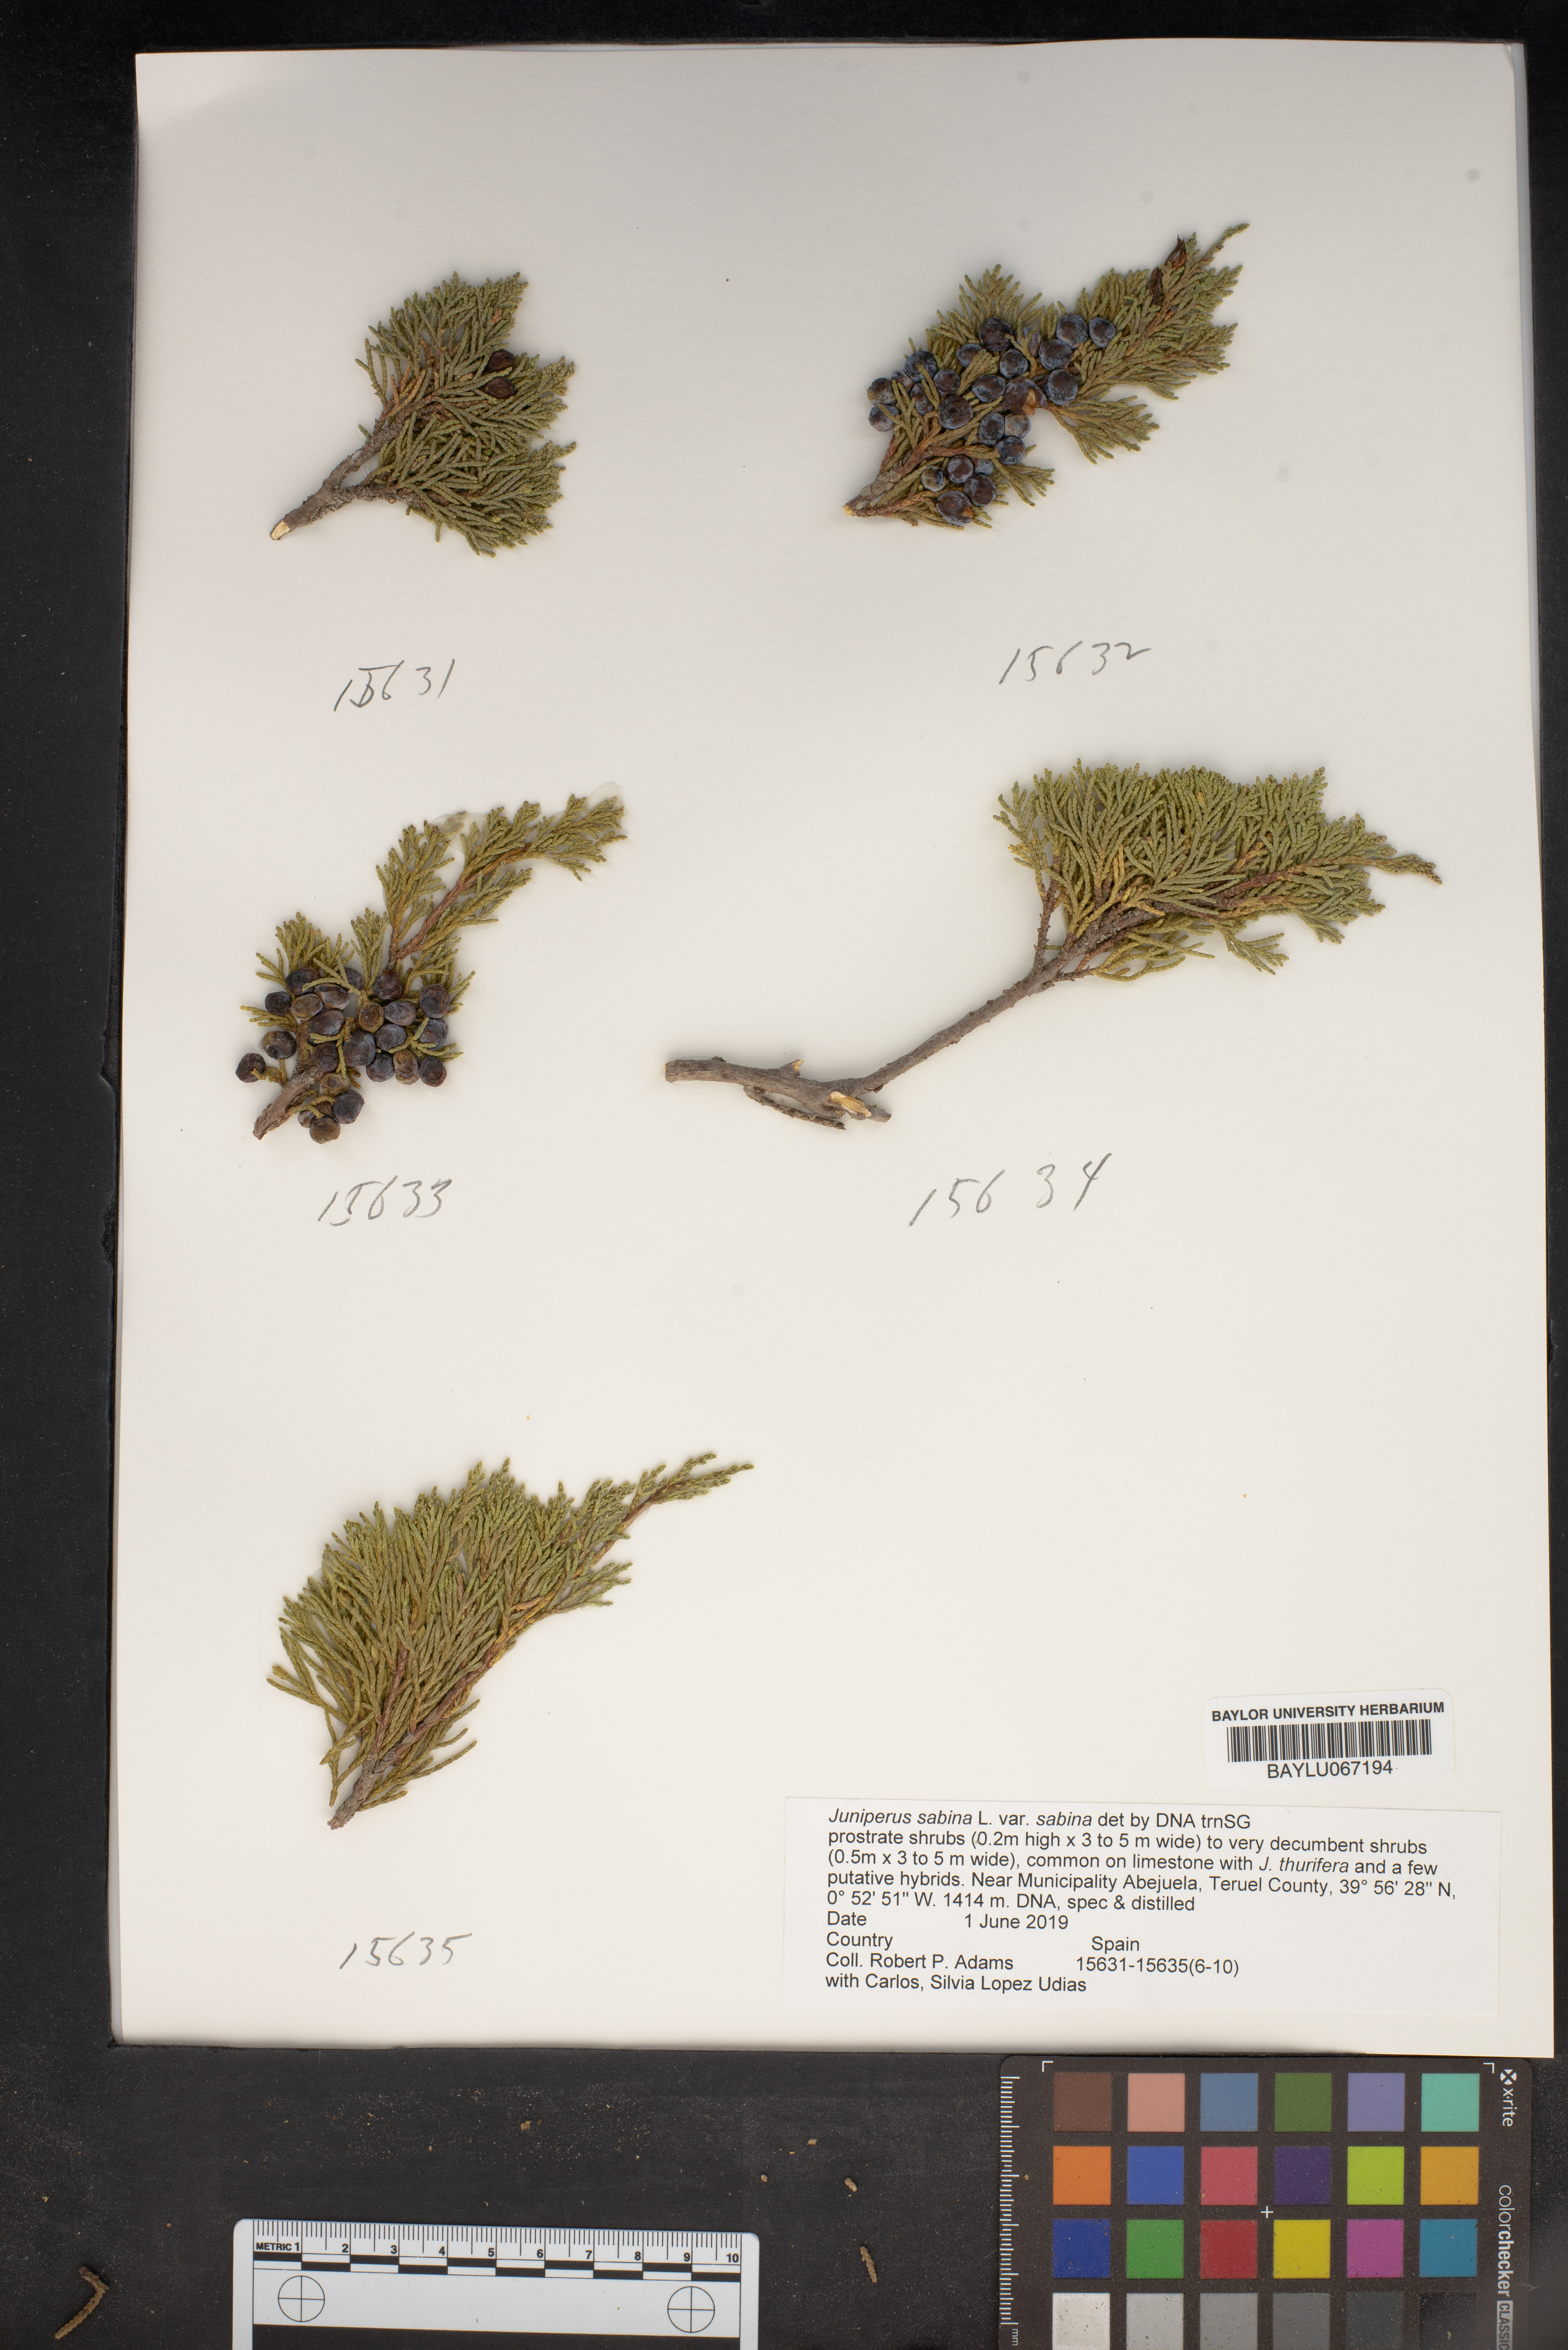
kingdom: Plantae
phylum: Tracheophyta
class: Pinopsida
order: Pinales
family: Cupressaceae
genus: Juniperus
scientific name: Juniperus sabina
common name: Savin
